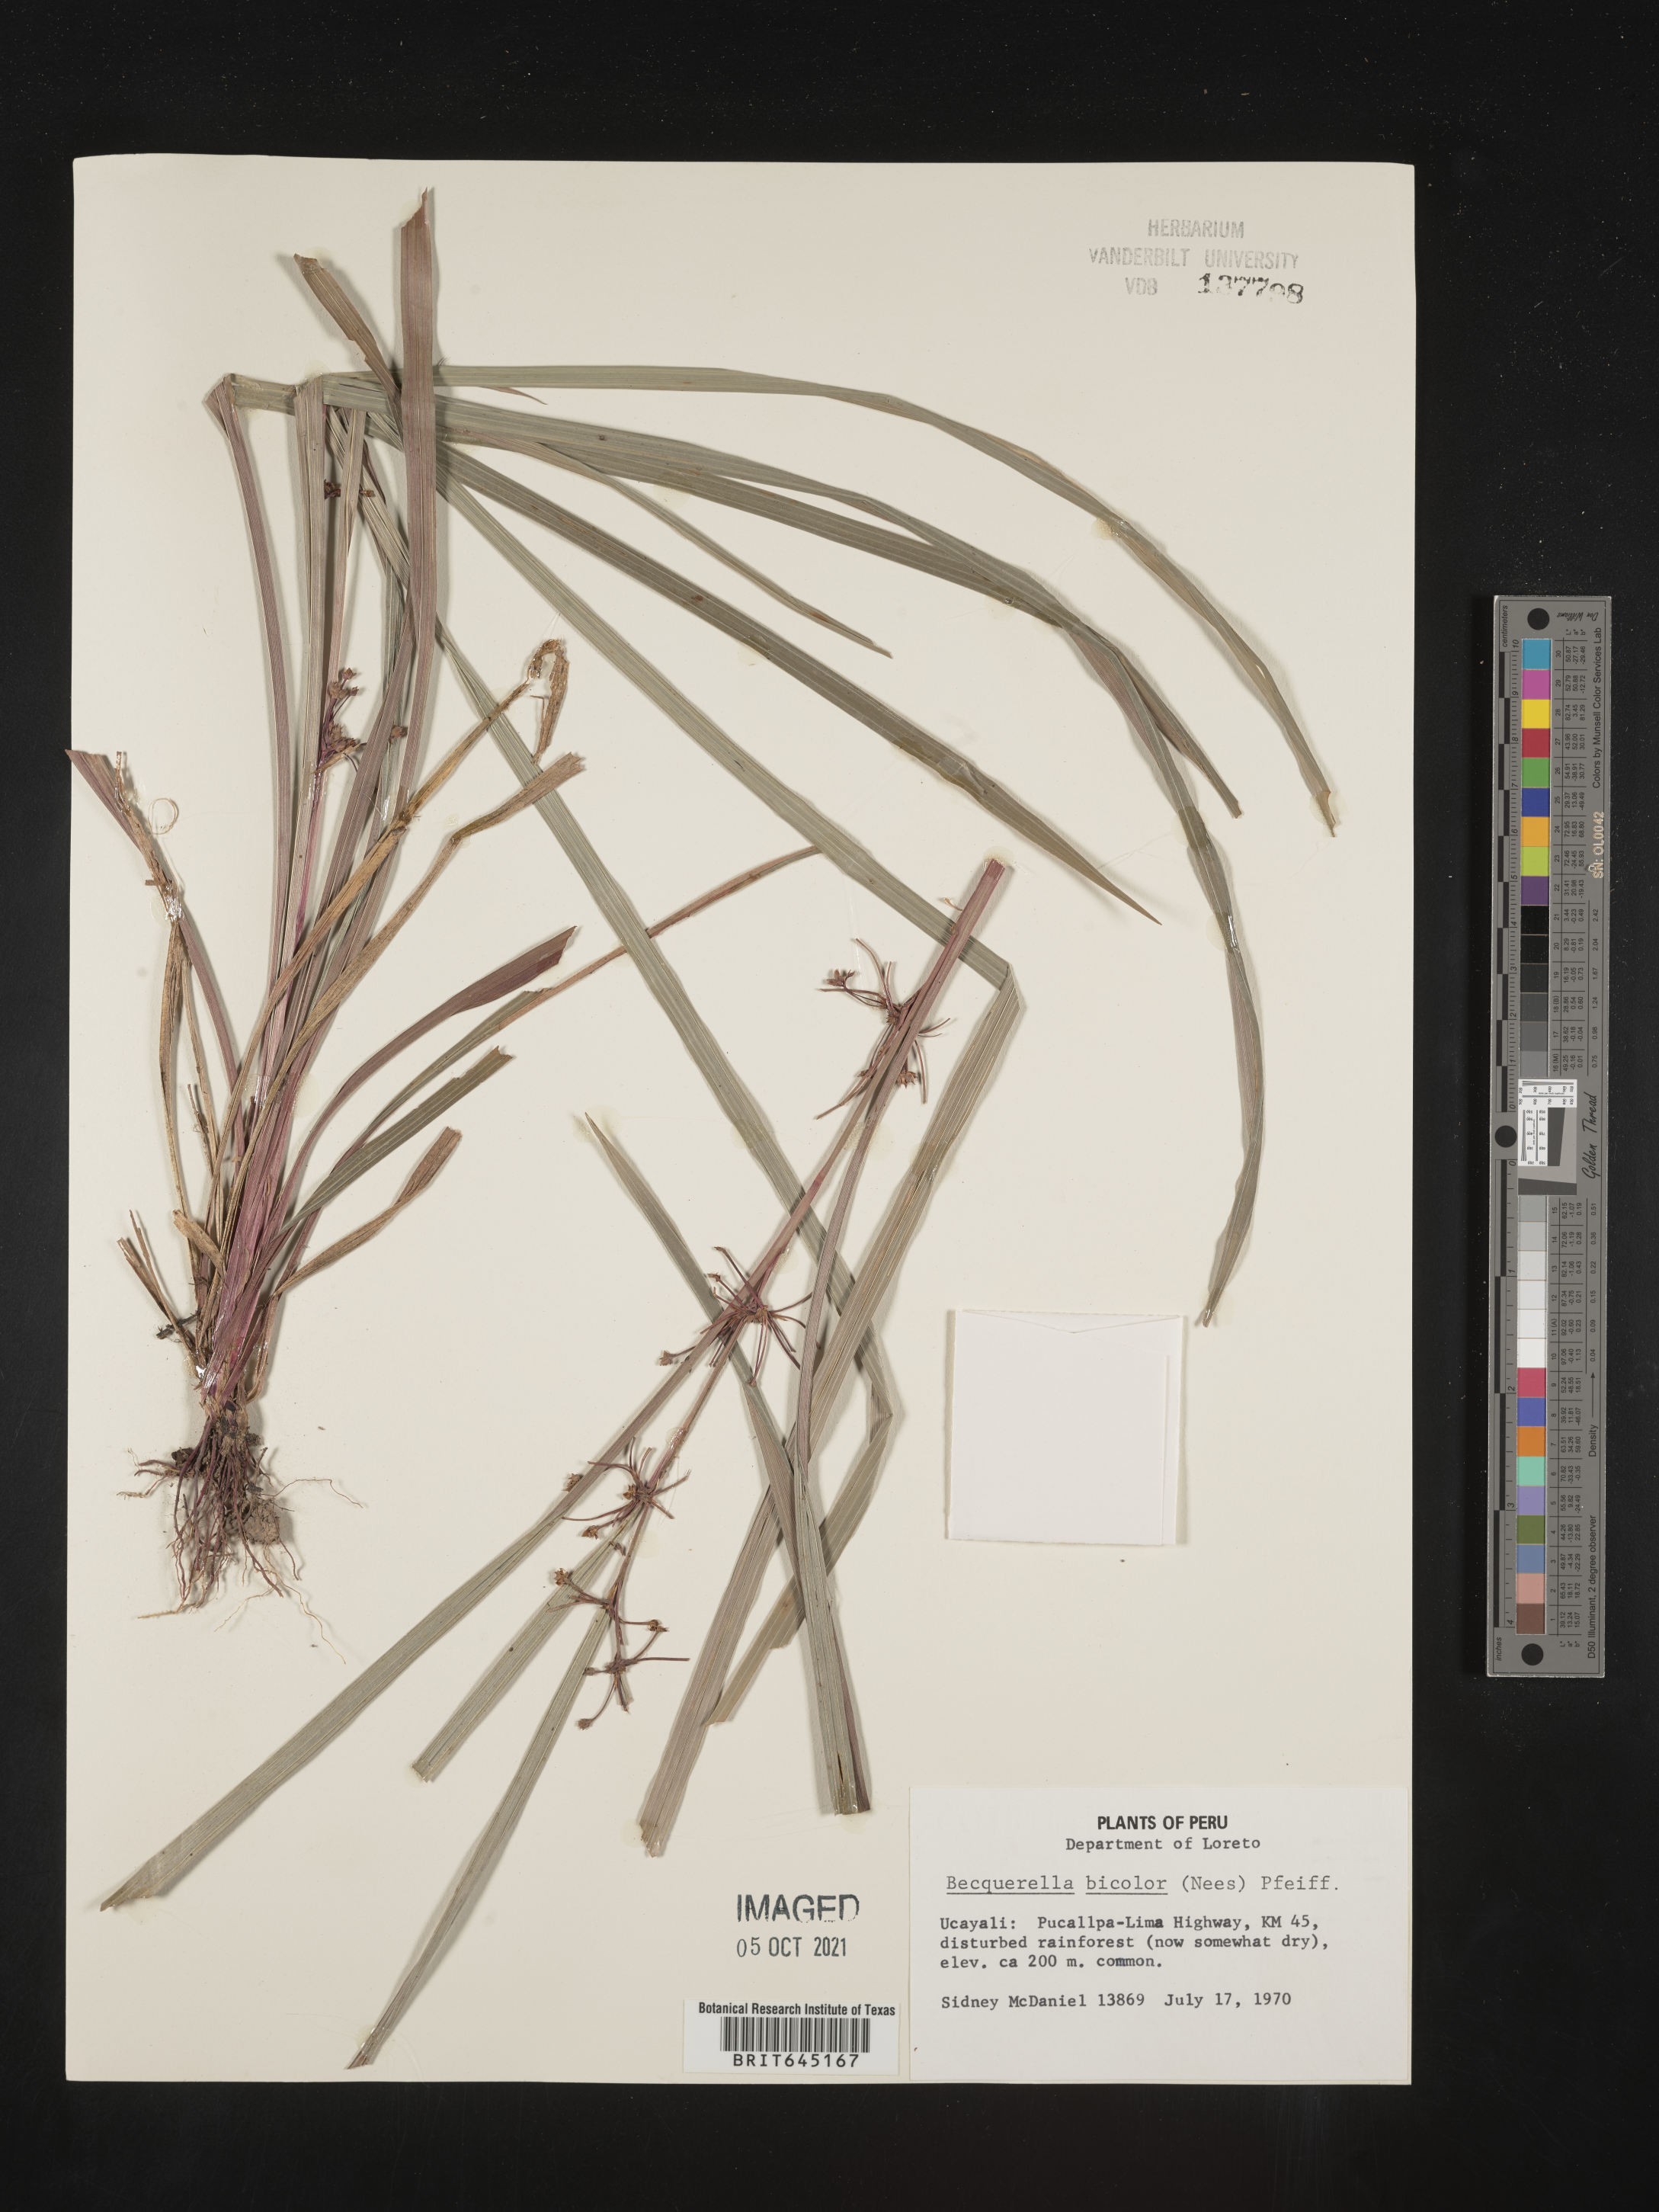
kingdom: Plantae
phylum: Tracheophyta
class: Liliopsida
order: Poales
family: Cyperaceae
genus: Calyptrocarya
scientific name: Calyptrocarya bicolor
